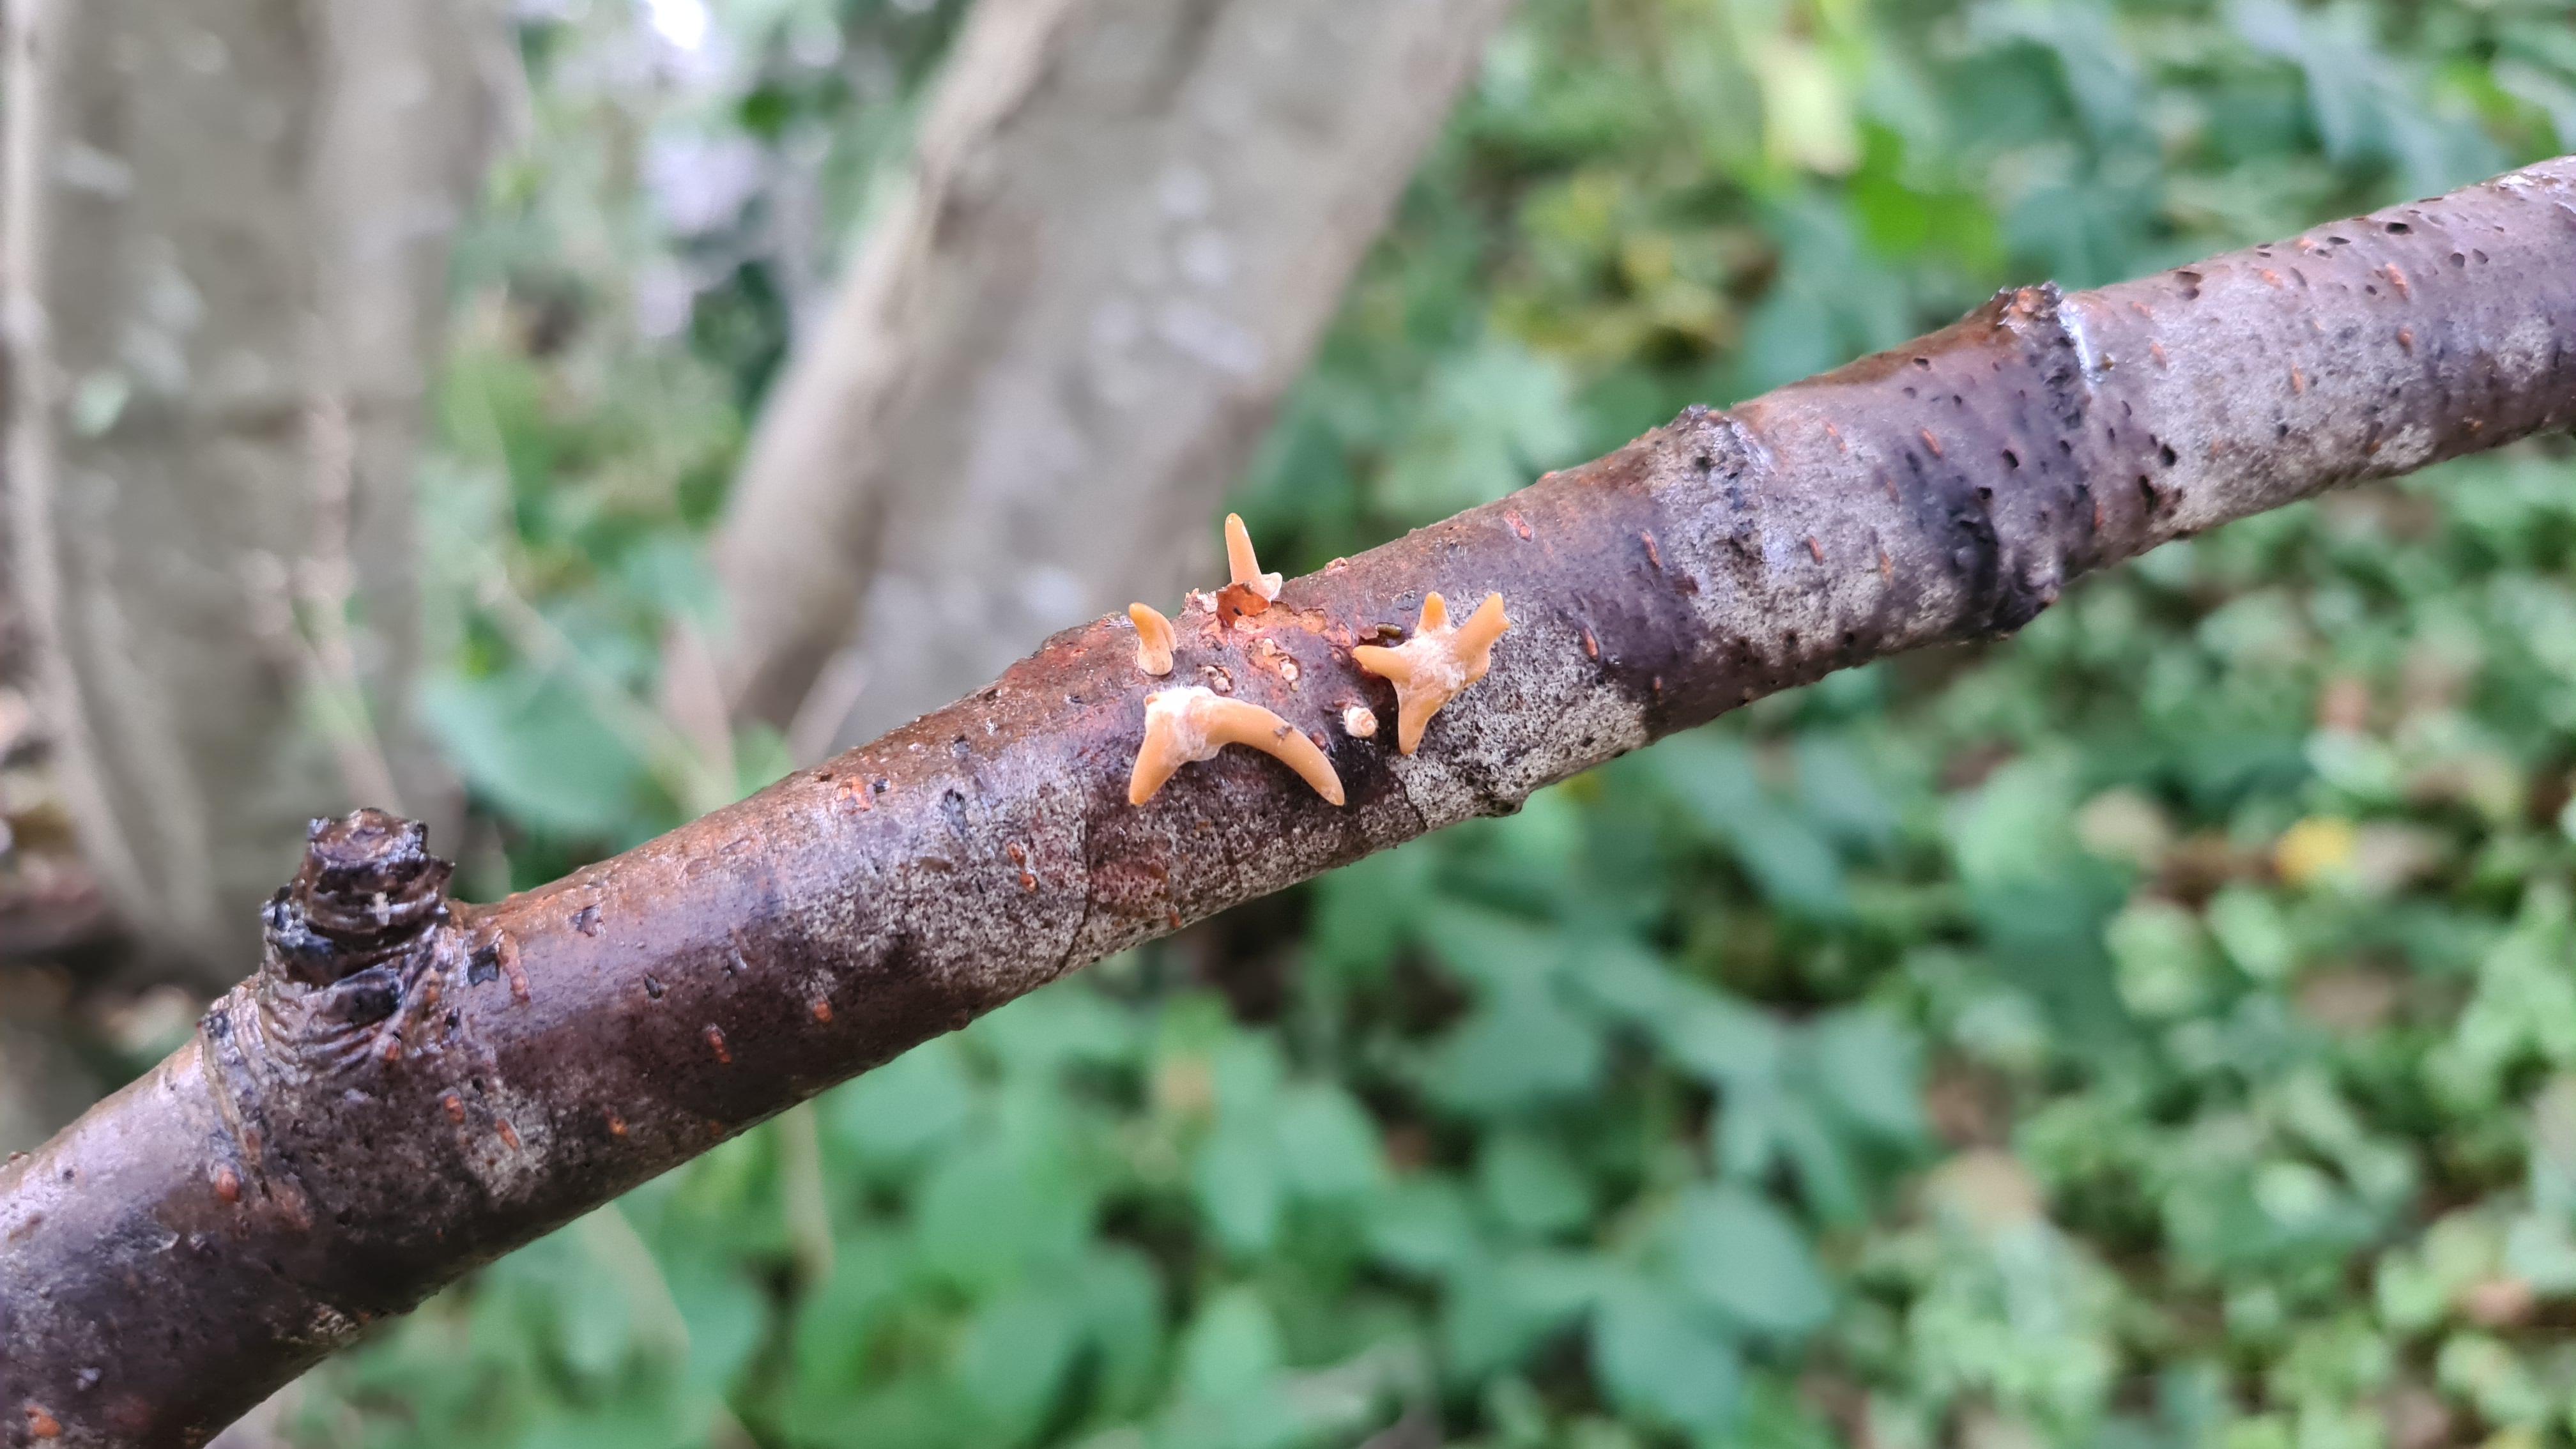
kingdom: Fungi
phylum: Basidiomycota
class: Agaricomycetes
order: Agaricales
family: Typhulaceae
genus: Typhula
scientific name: Typhula contorta
